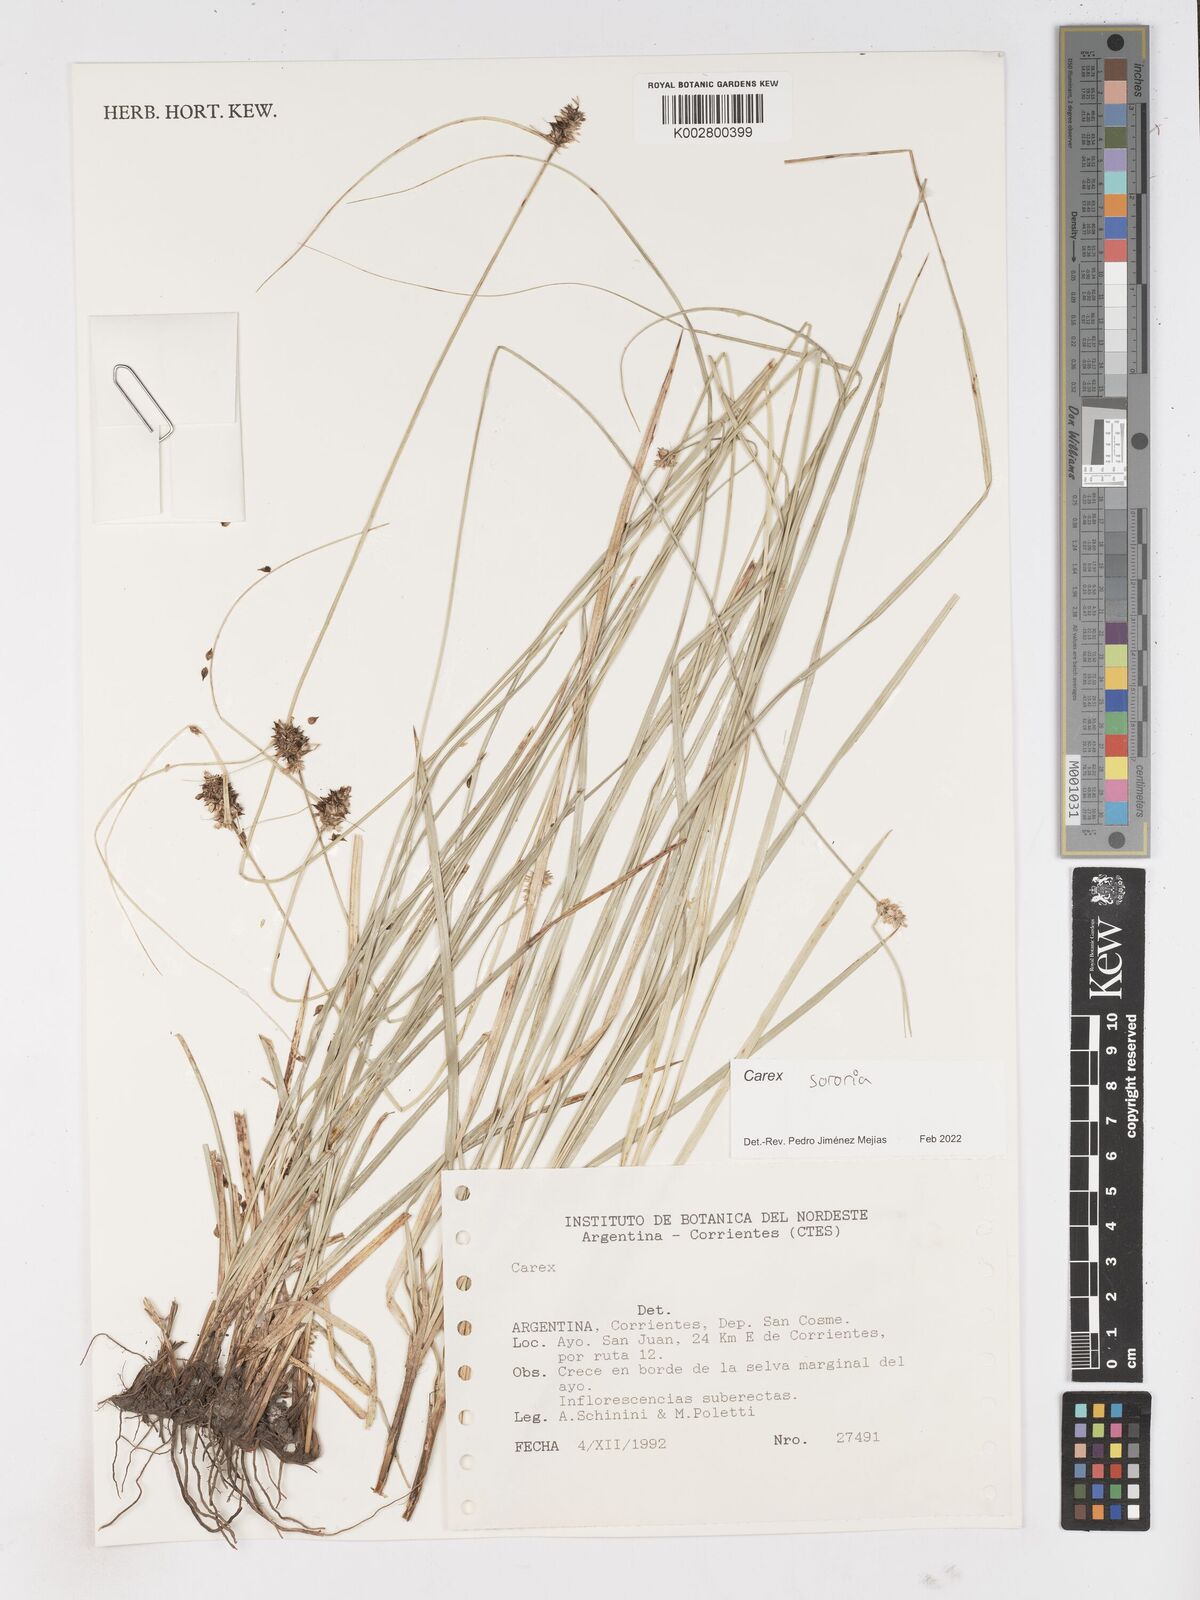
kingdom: Plantae
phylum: Tracheophyta
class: Liliopsida
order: Poales
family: Cyperaceae
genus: Carex
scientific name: Carex sororia
